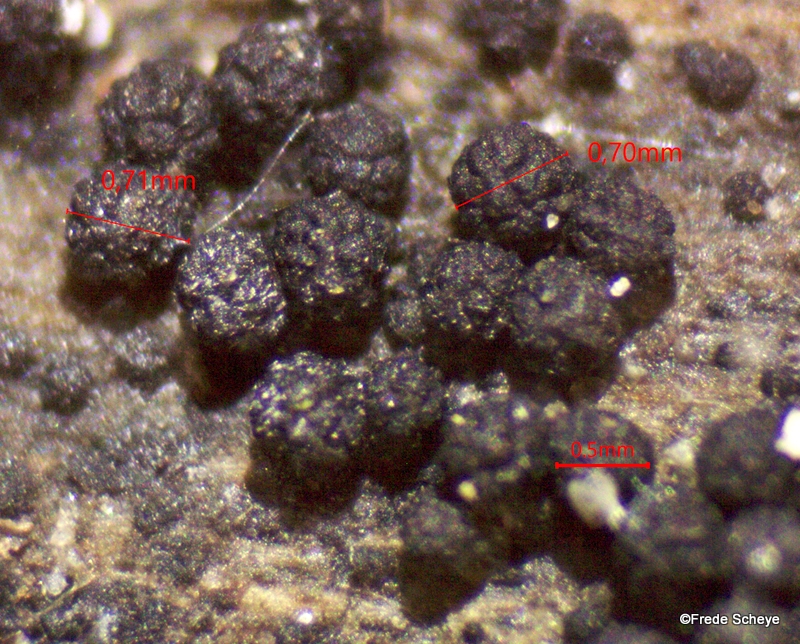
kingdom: Fungi
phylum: Ascomycota
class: Sordariomycetes
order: Coronophorales
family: Bertiaceae
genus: Bertia
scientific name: Bertia moriformis
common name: almindelig morbærkerne
